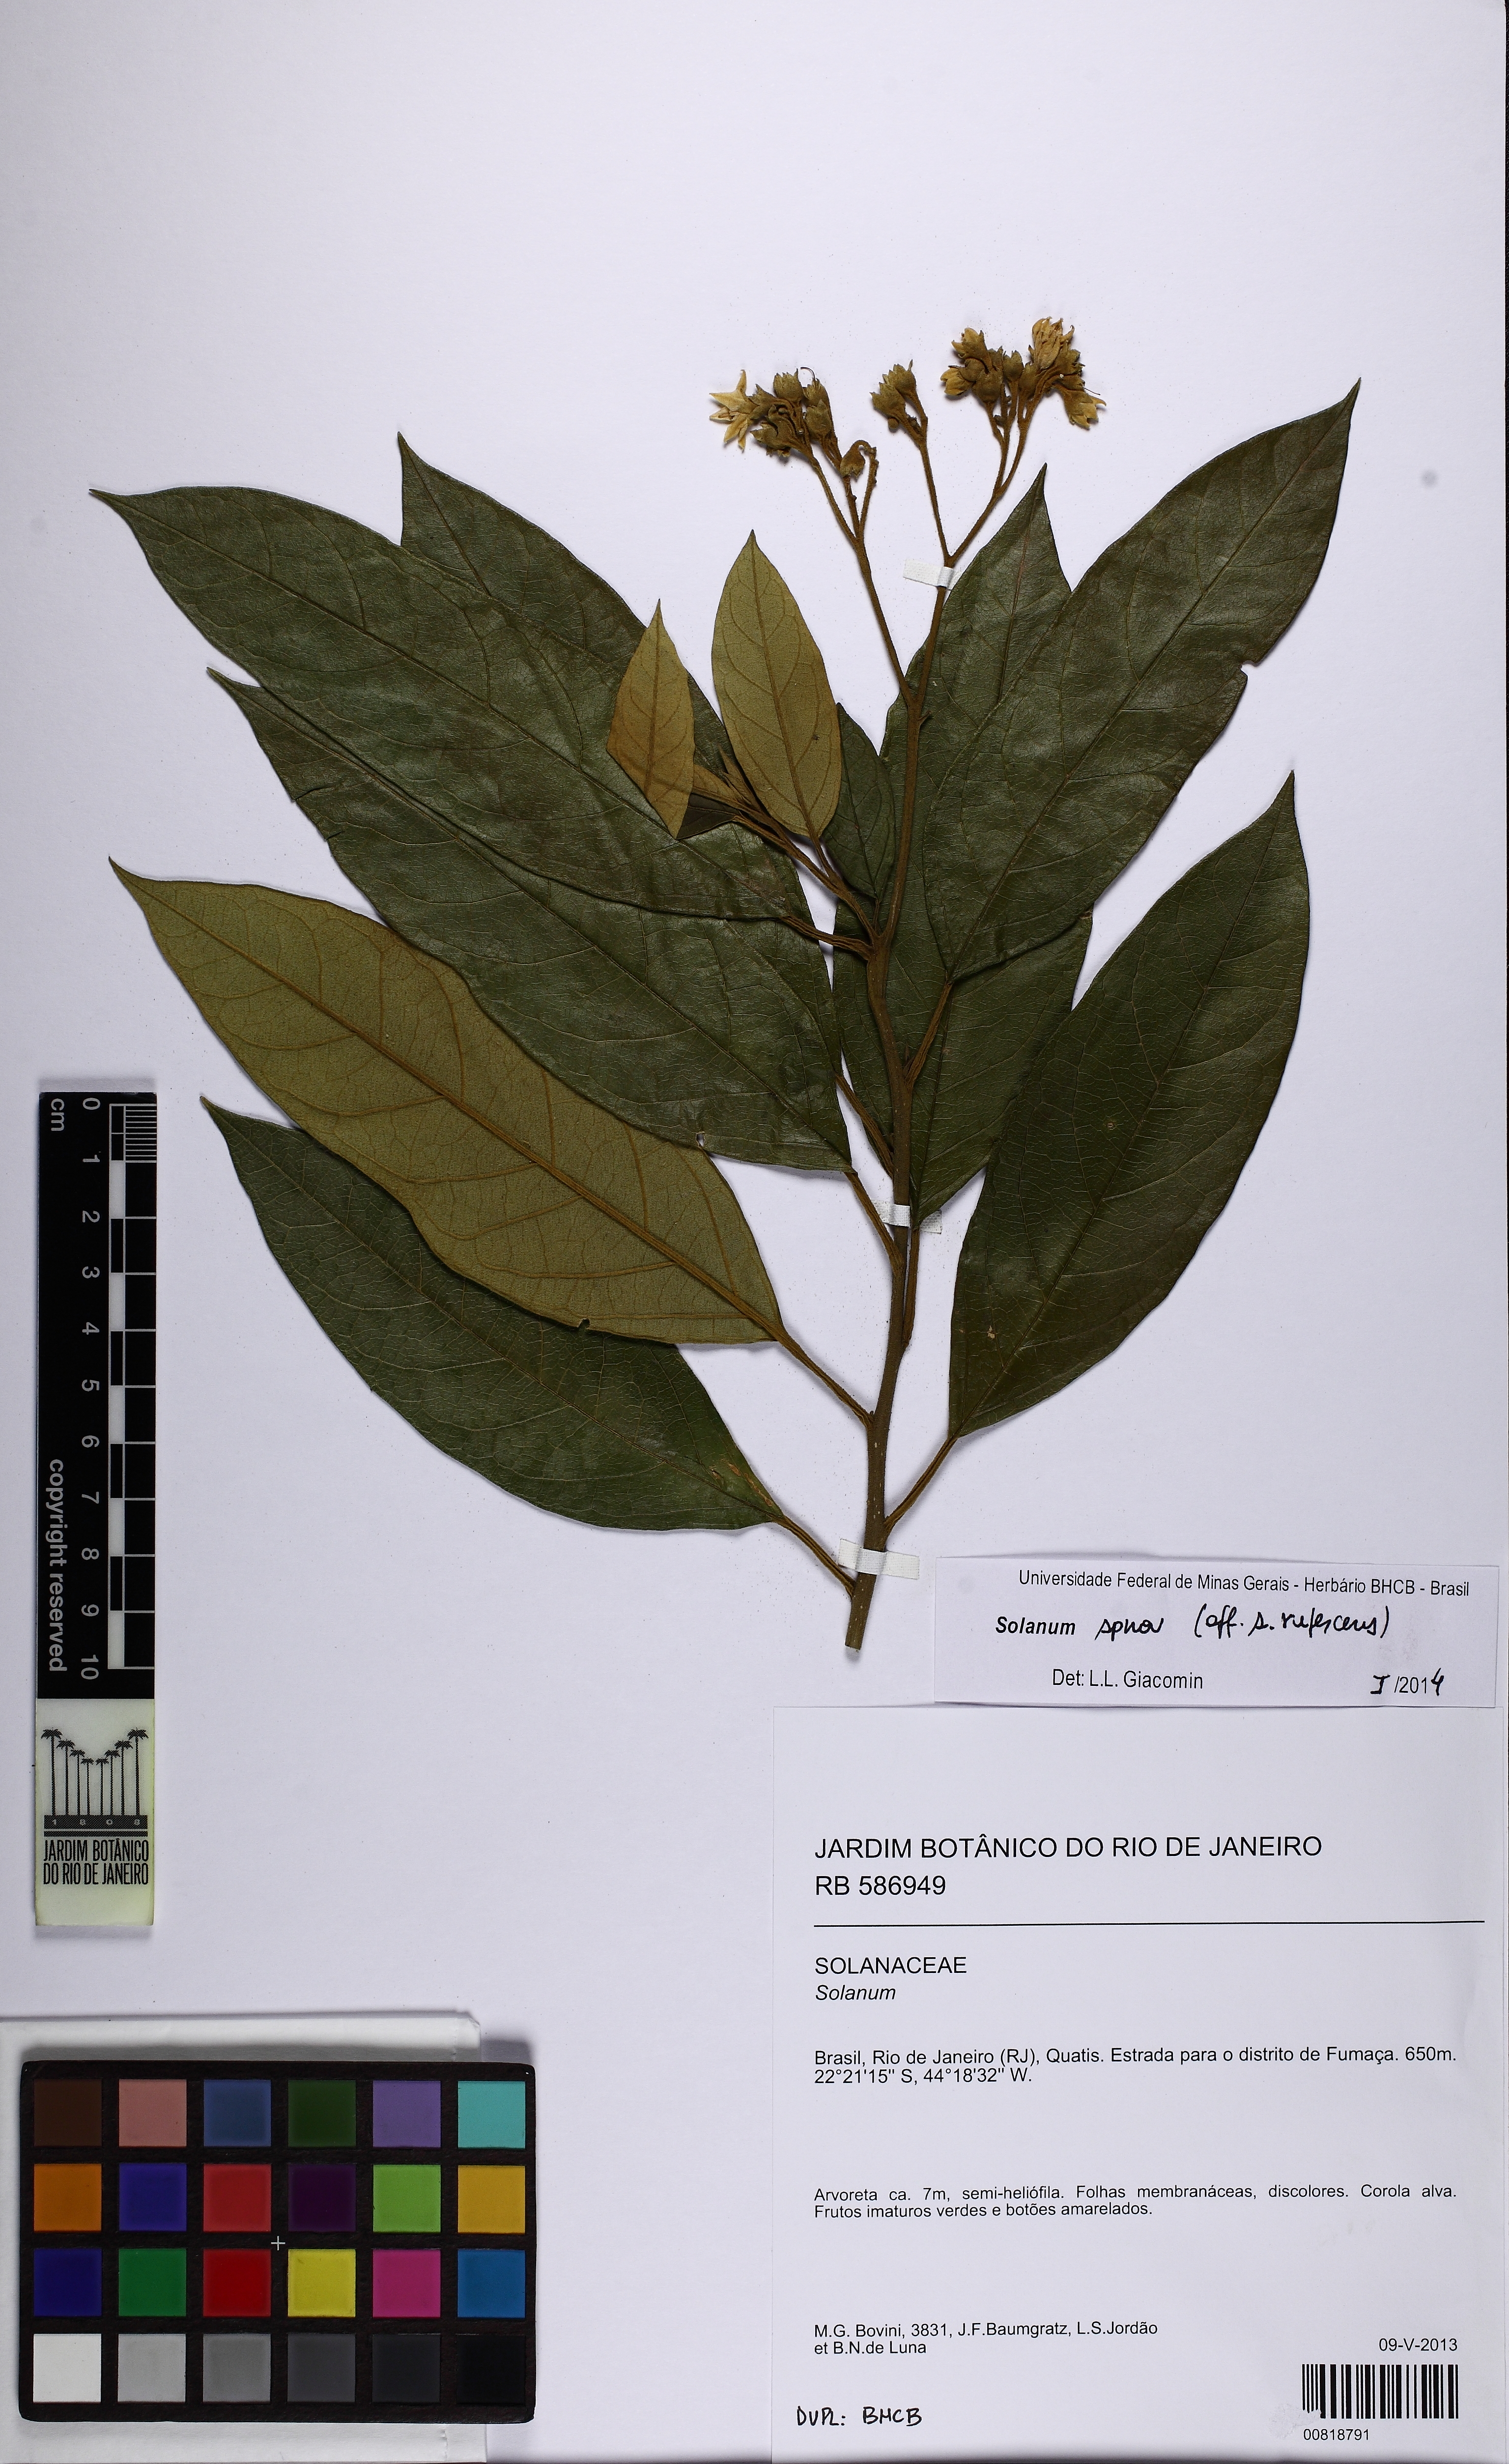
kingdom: Plantae
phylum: Tracheophyta
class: Magnoliopsida
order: Solanales
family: Solanaceae
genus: Solanum
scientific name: Solanum
